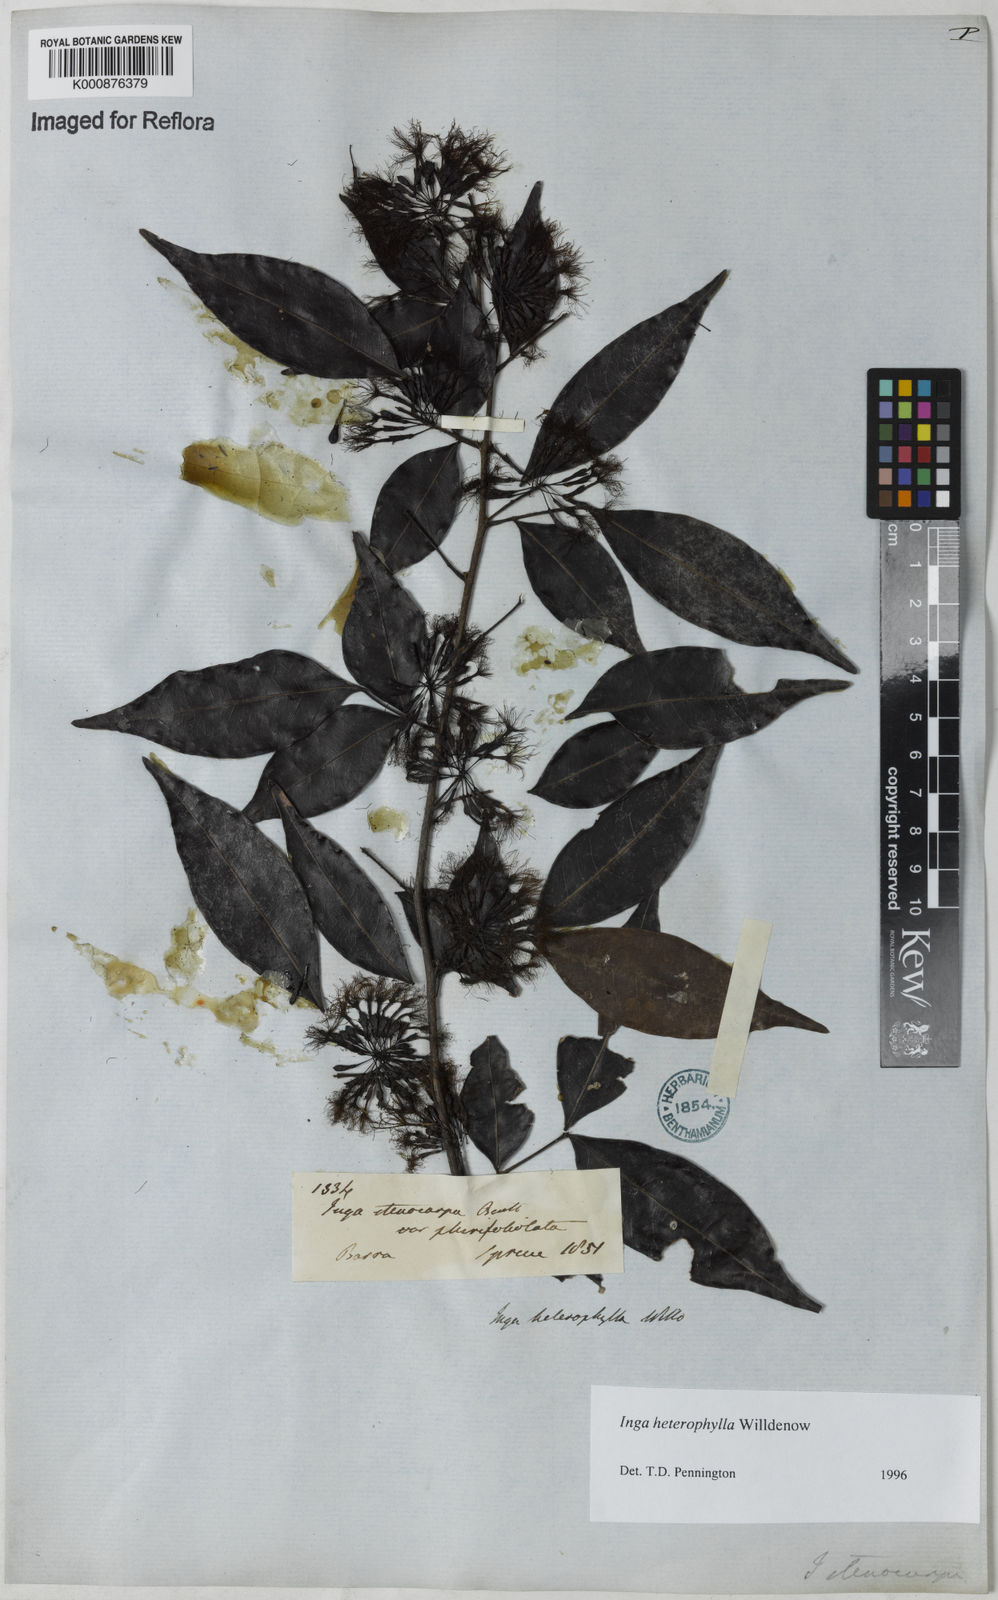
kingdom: Plantae
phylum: Tracheophyta
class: Magnoliopsida
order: Fabales
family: Fabaceae
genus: Inga
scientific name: Inga heterophylla
